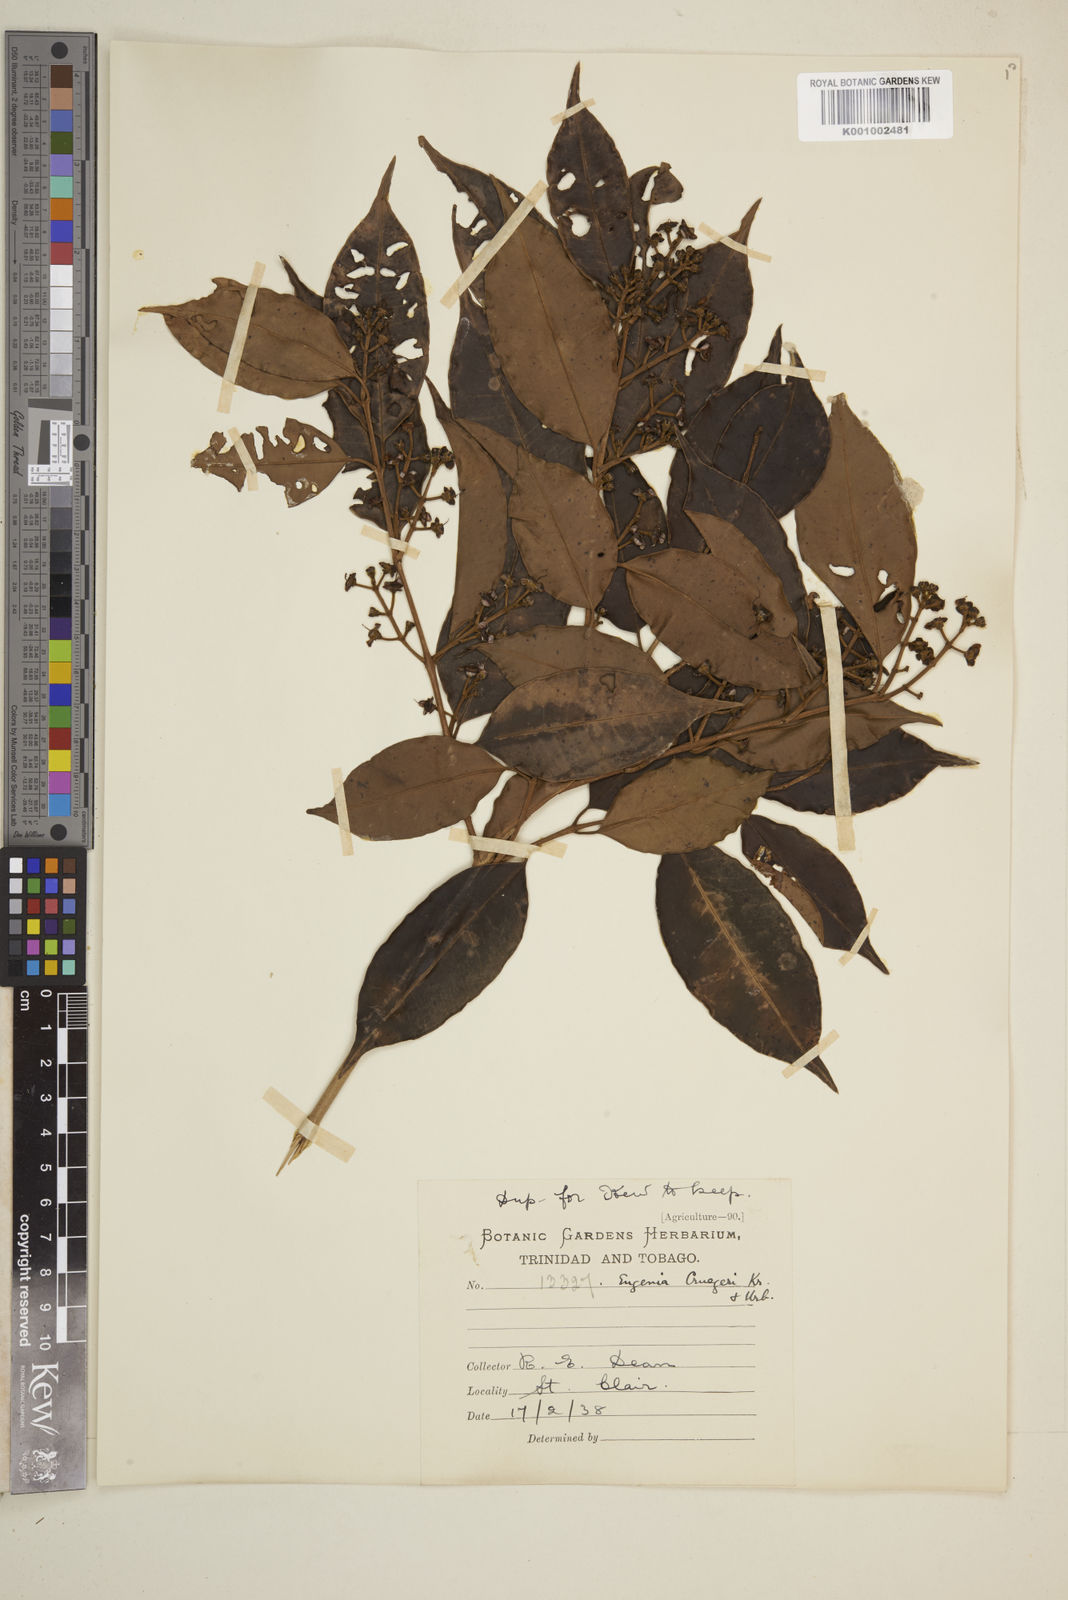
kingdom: Plantae
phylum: Tracheophyta
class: Magnoliopsida
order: Myrtales
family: Myrtaceae
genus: Eugenia
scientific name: Eugenia limbosa
